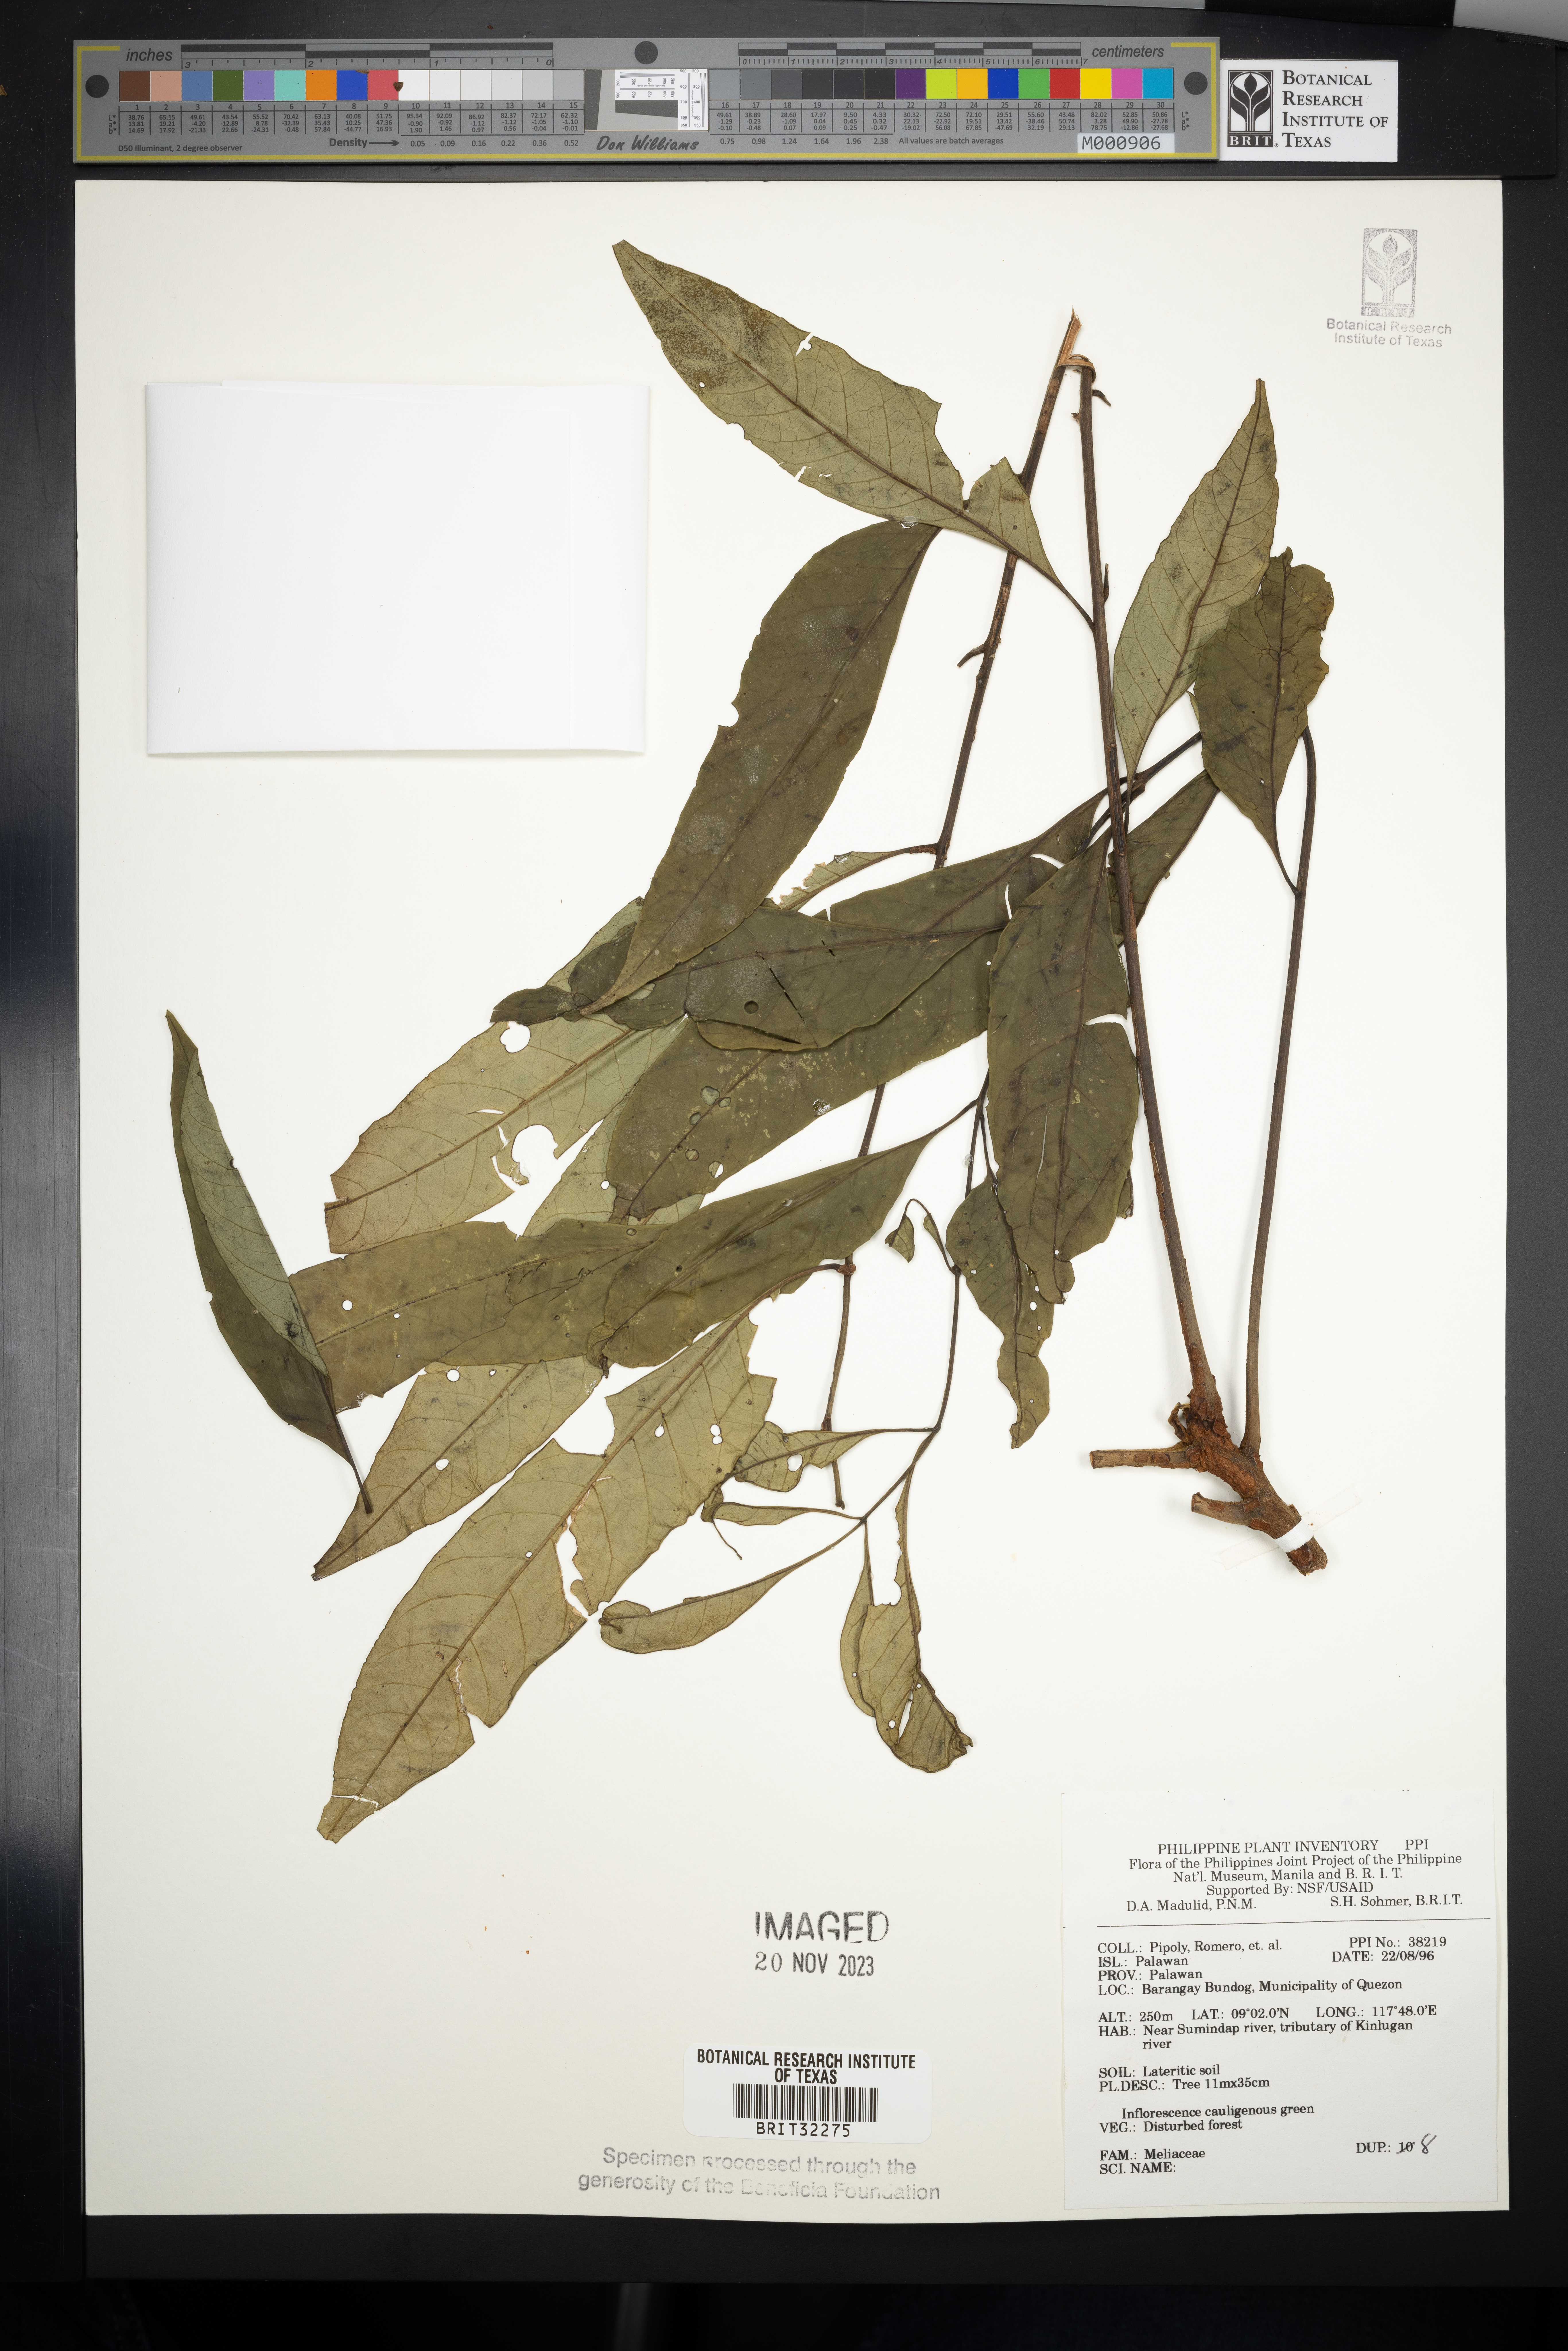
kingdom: Plantae
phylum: Tracheophyta
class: Magnoliopsida
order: Sapindales
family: Meliaceae
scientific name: Meliaceae
